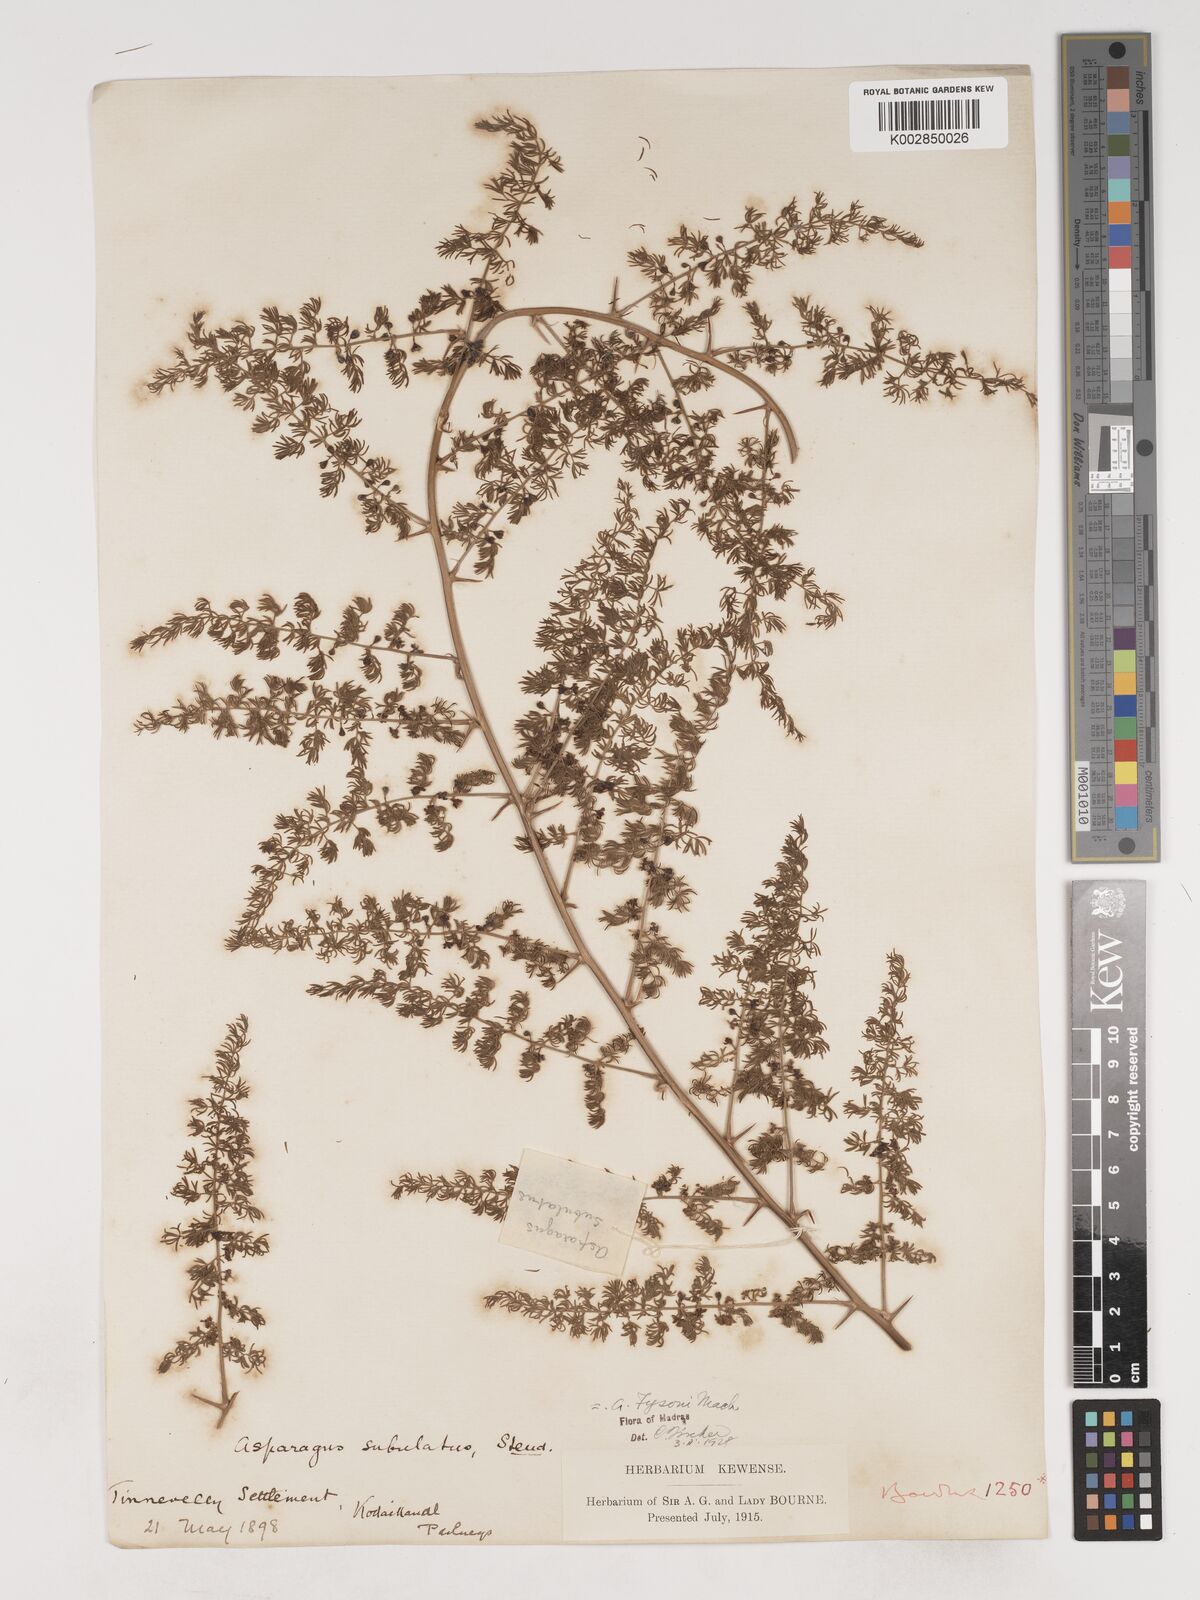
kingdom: Plantae
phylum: Tracheophyta
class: Liliopsida
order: Asparagales
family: Asparagaceae
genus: Asparagus
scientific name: Asparagus fysonii
